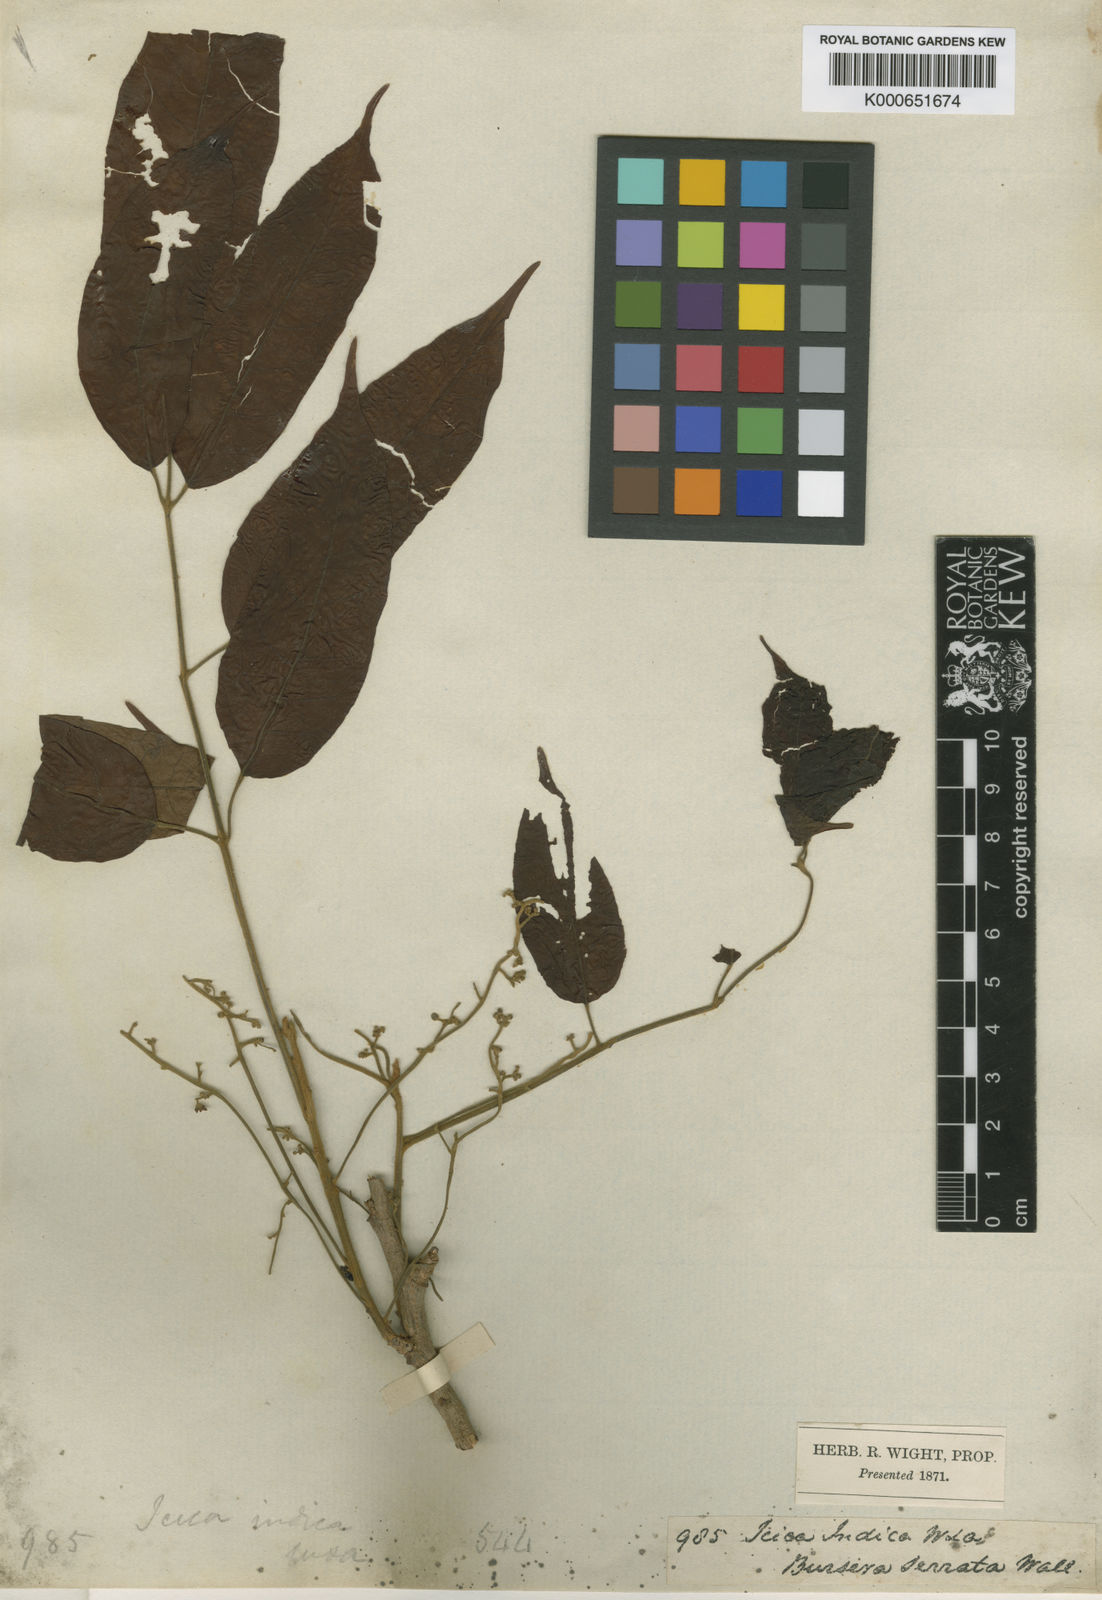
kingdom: Plantae
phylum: Tracheophyta
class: Magnoliopsida
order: Sapindales
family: Burseraceae
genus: Protium
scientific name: Protium
